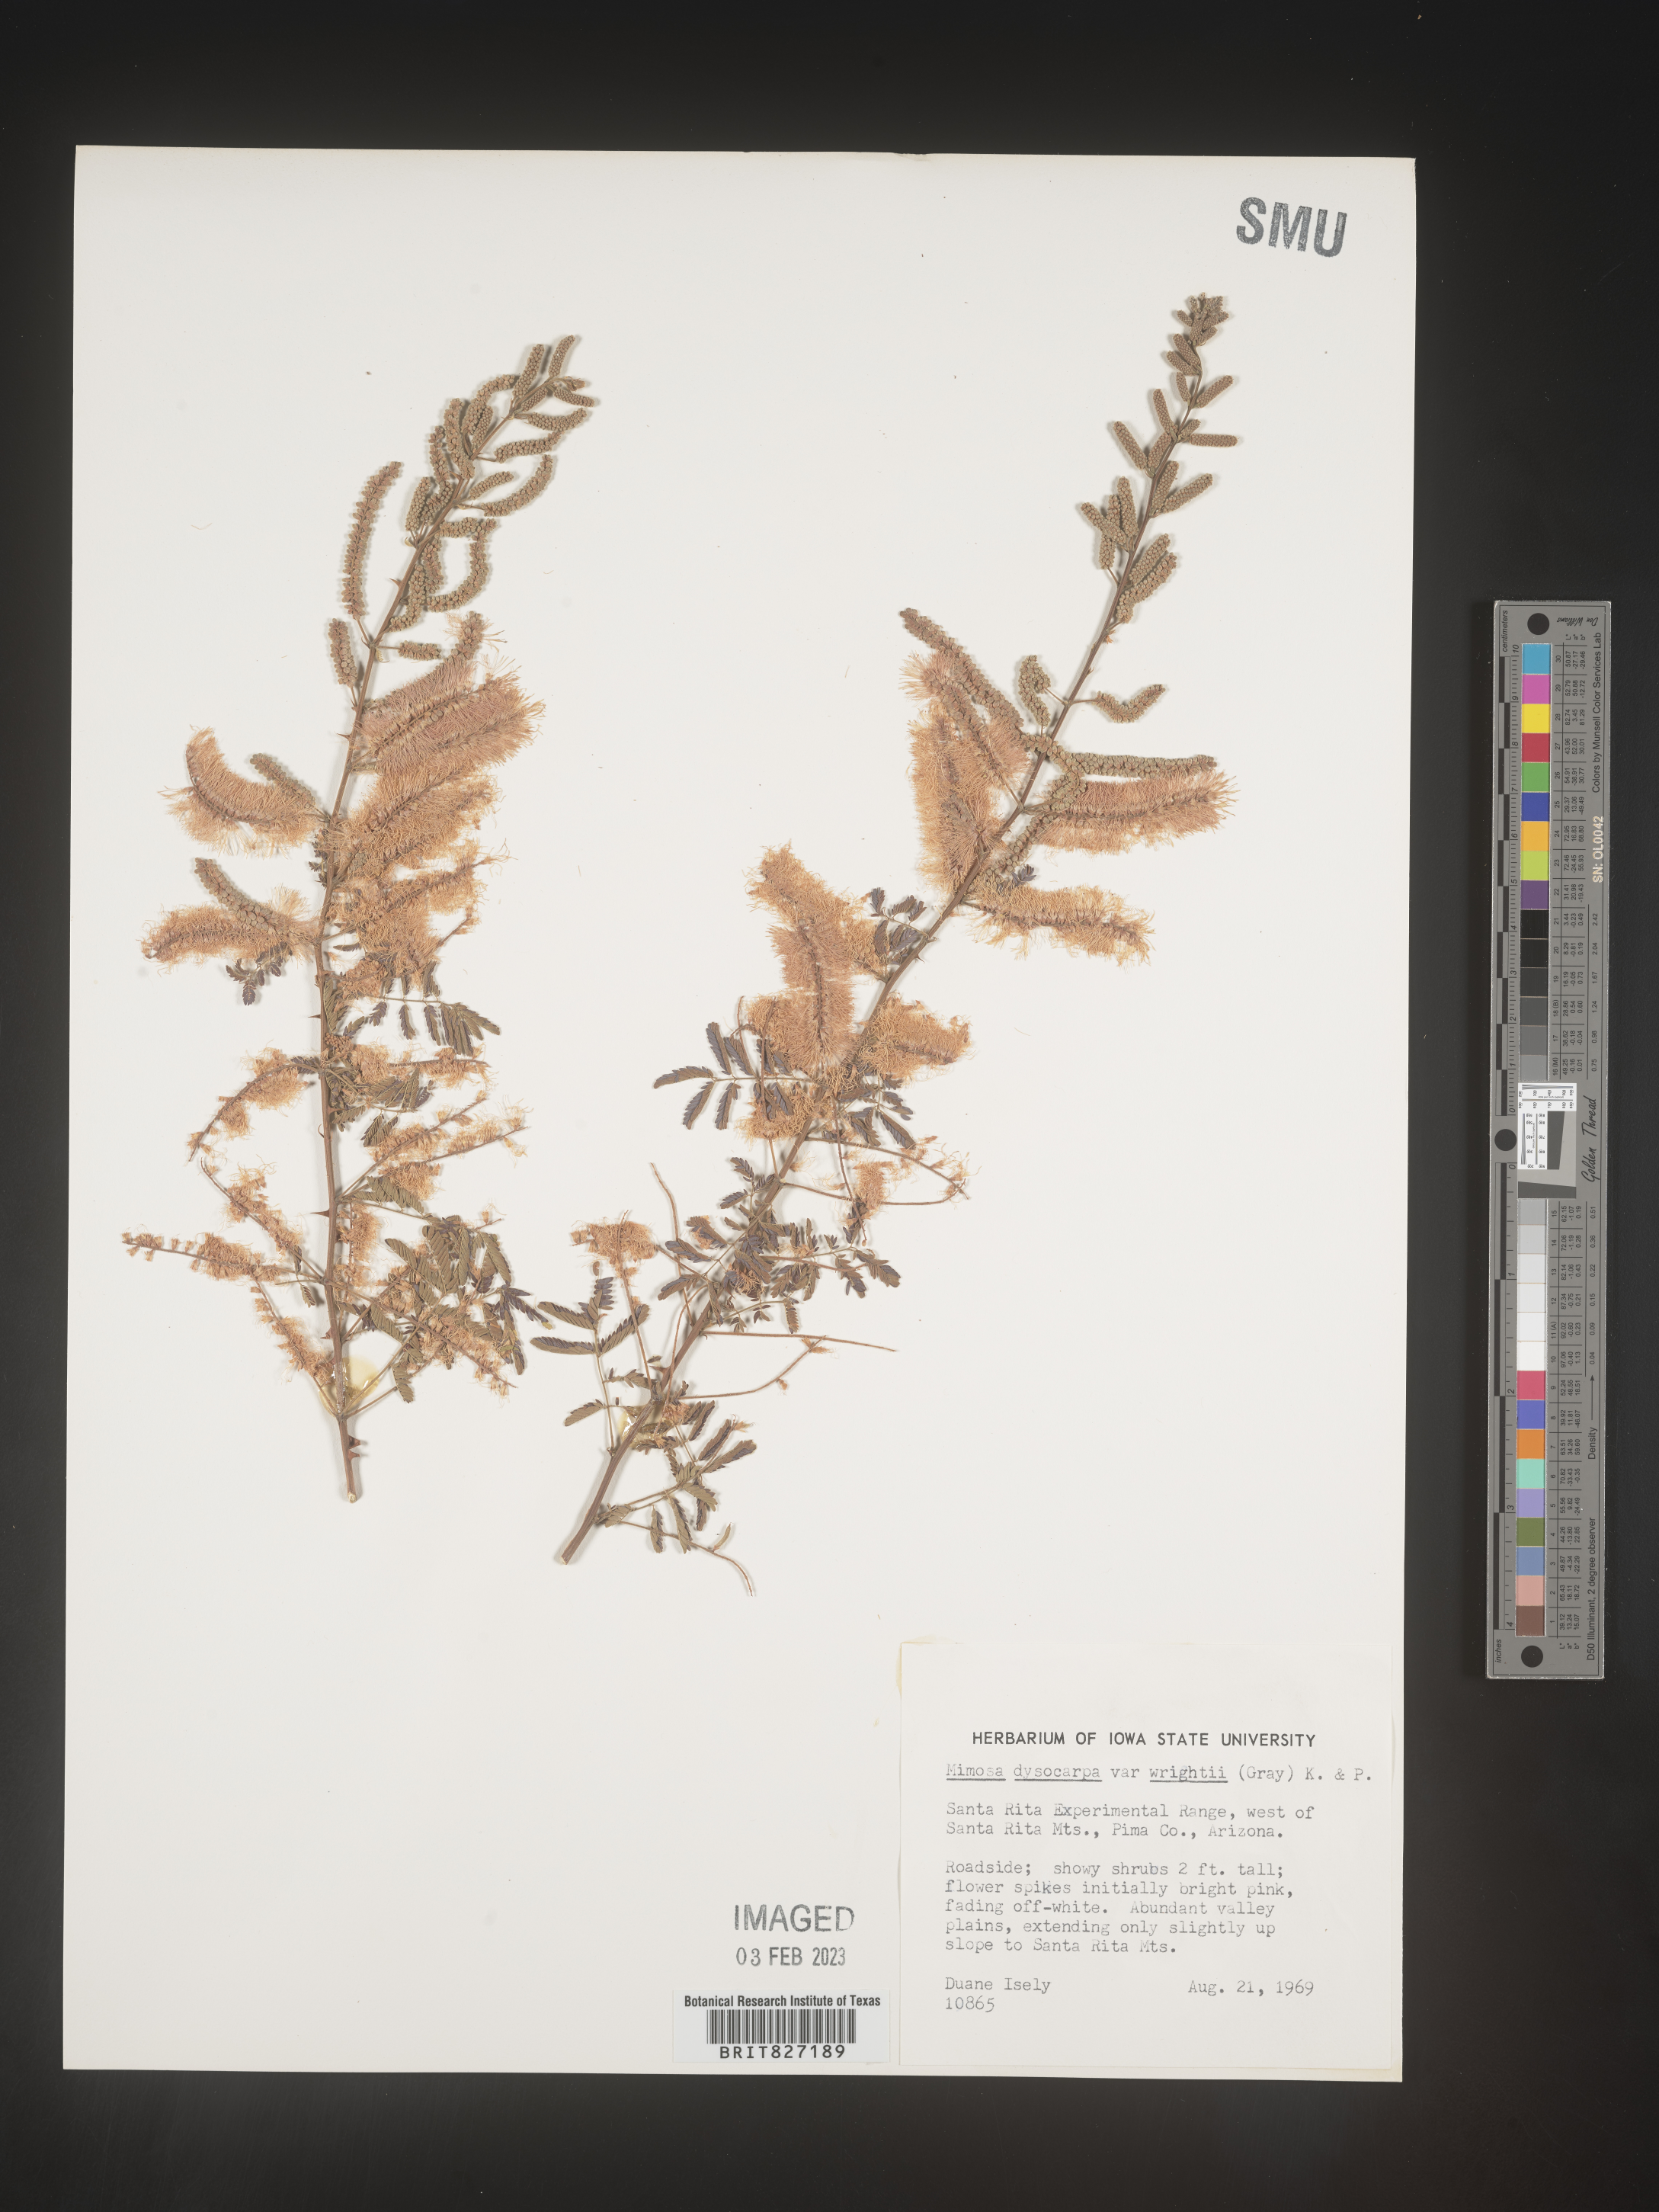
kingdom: Plantae
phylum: Tracheophyta
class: Magnoliopsida
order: Fabales
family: Fabaceae
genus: Mimosa
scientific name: Mimosa dysocarpa
